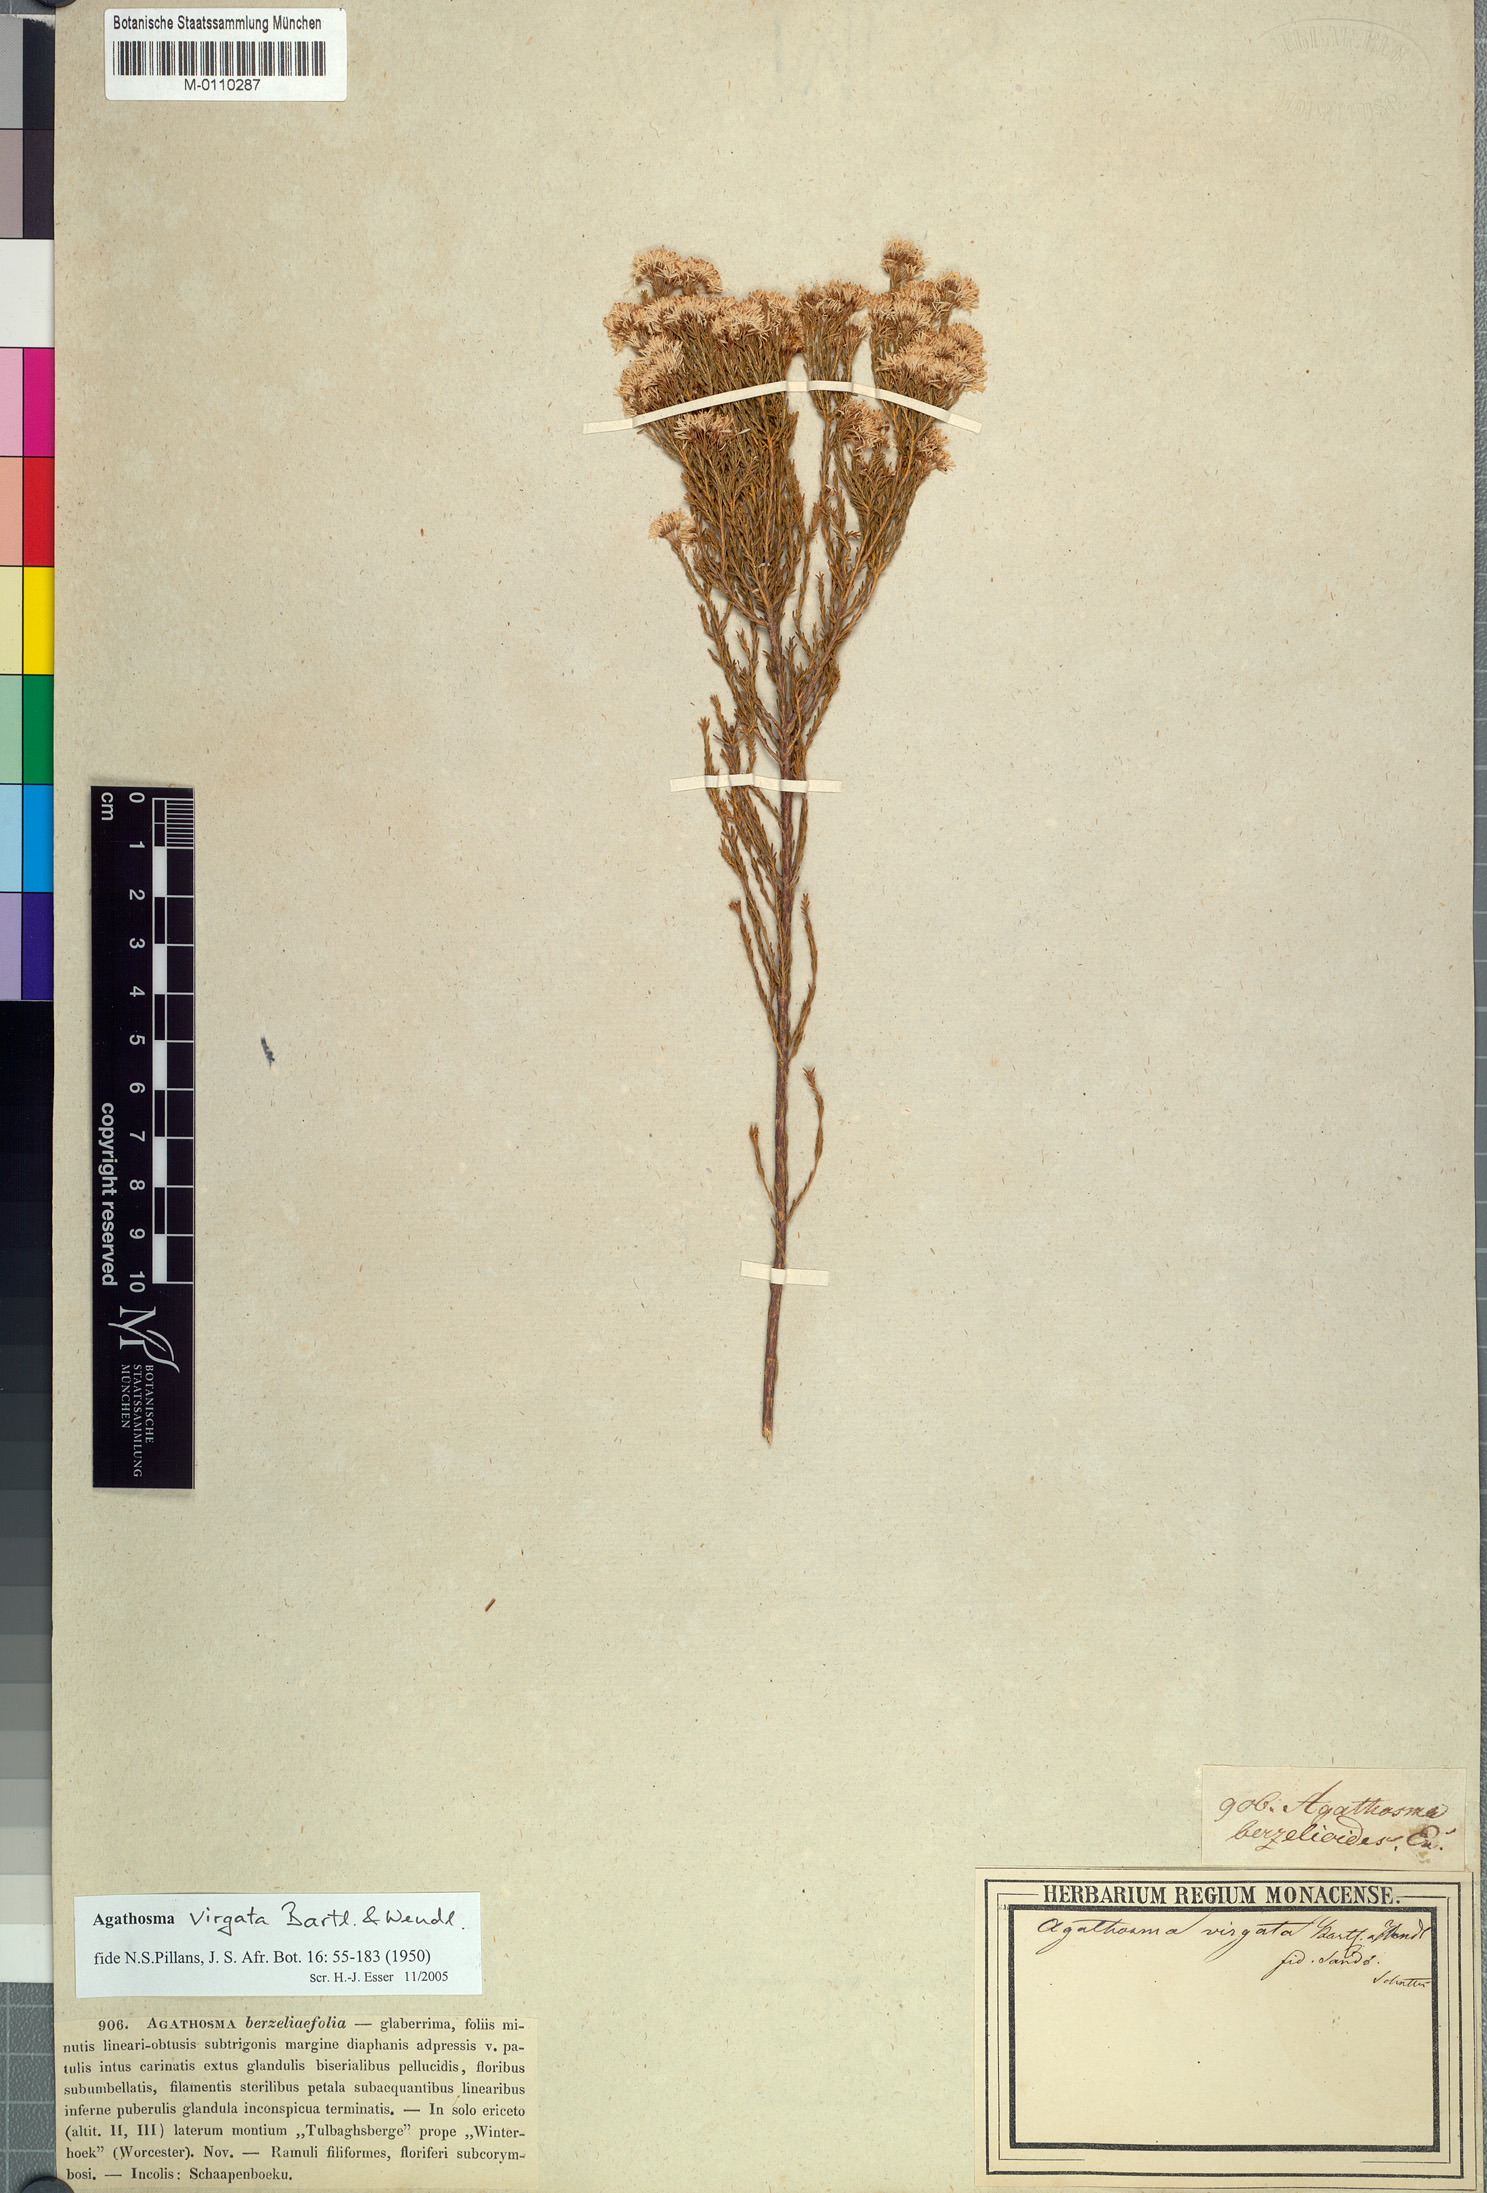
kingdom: Plantae
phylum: Tracheophyta
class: Magnoliopsida
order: Sapindales
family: Rutaceae
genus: Agathosma
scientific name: Agathosma virgata
